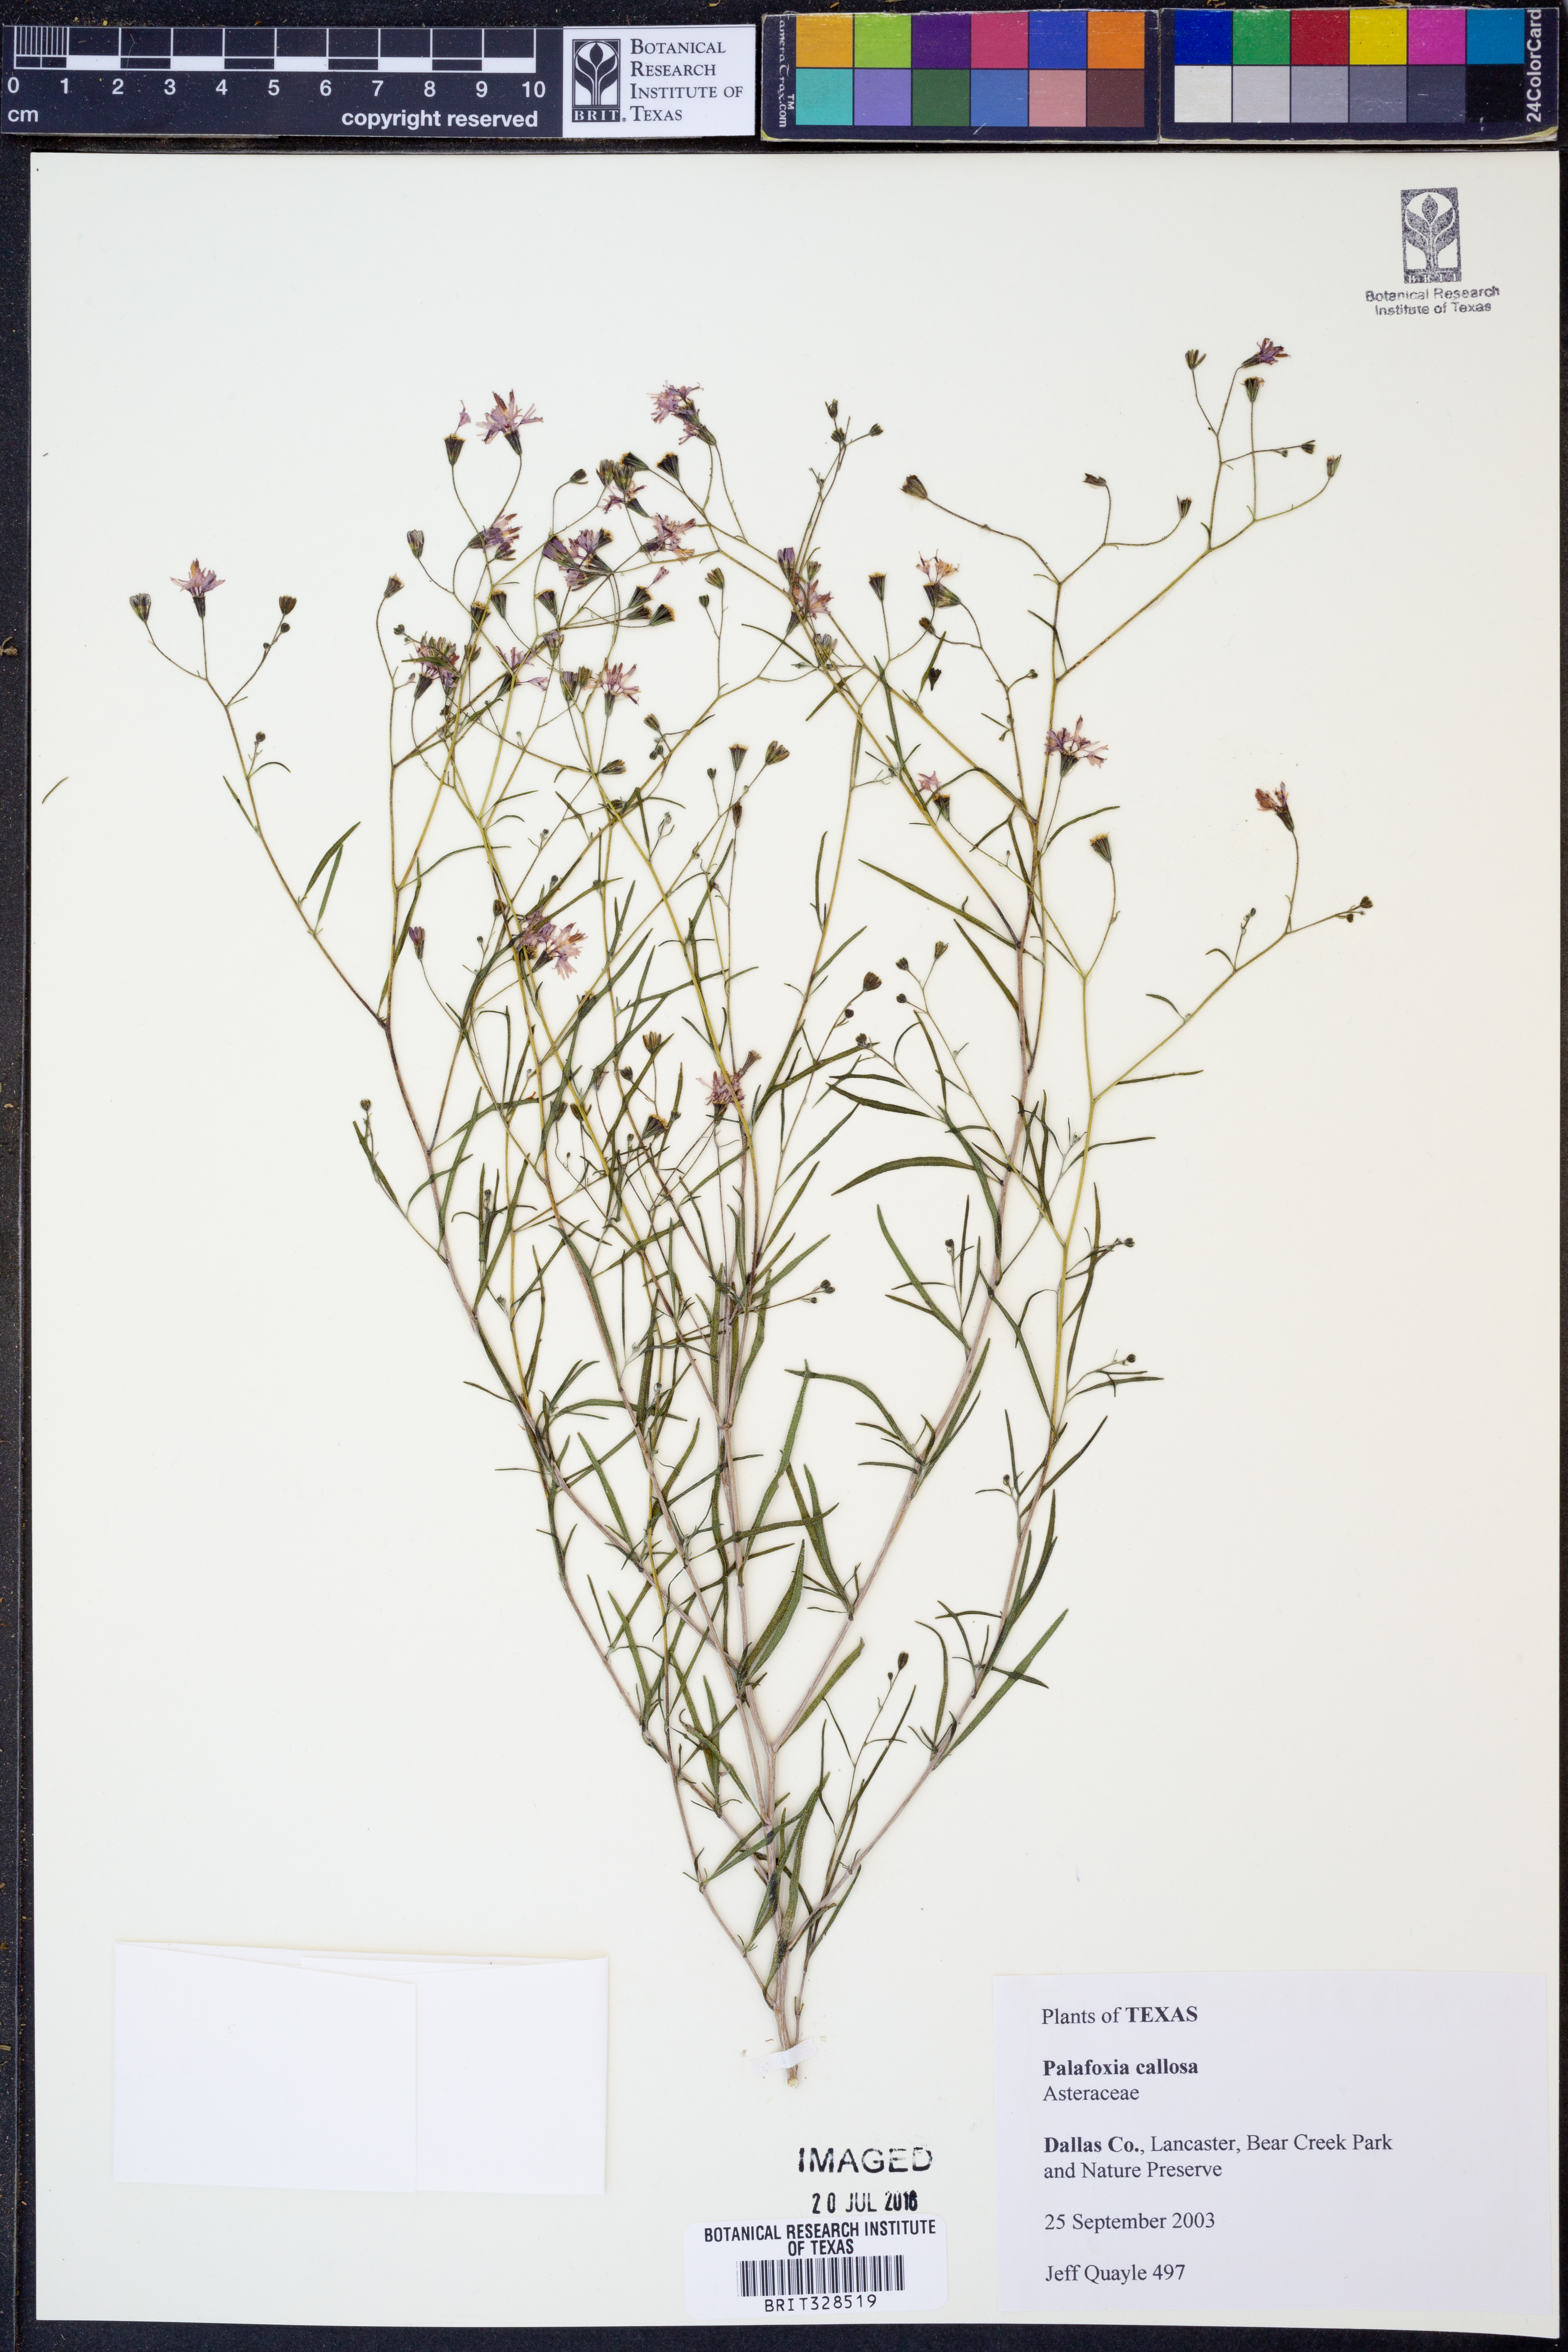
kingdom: Plantae
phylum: Tracheophyta
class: Magnoliopsida
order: Asterales
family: Asteraceae
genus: Palafoxia
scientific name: Palafoxia callosa
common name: Small palafox
